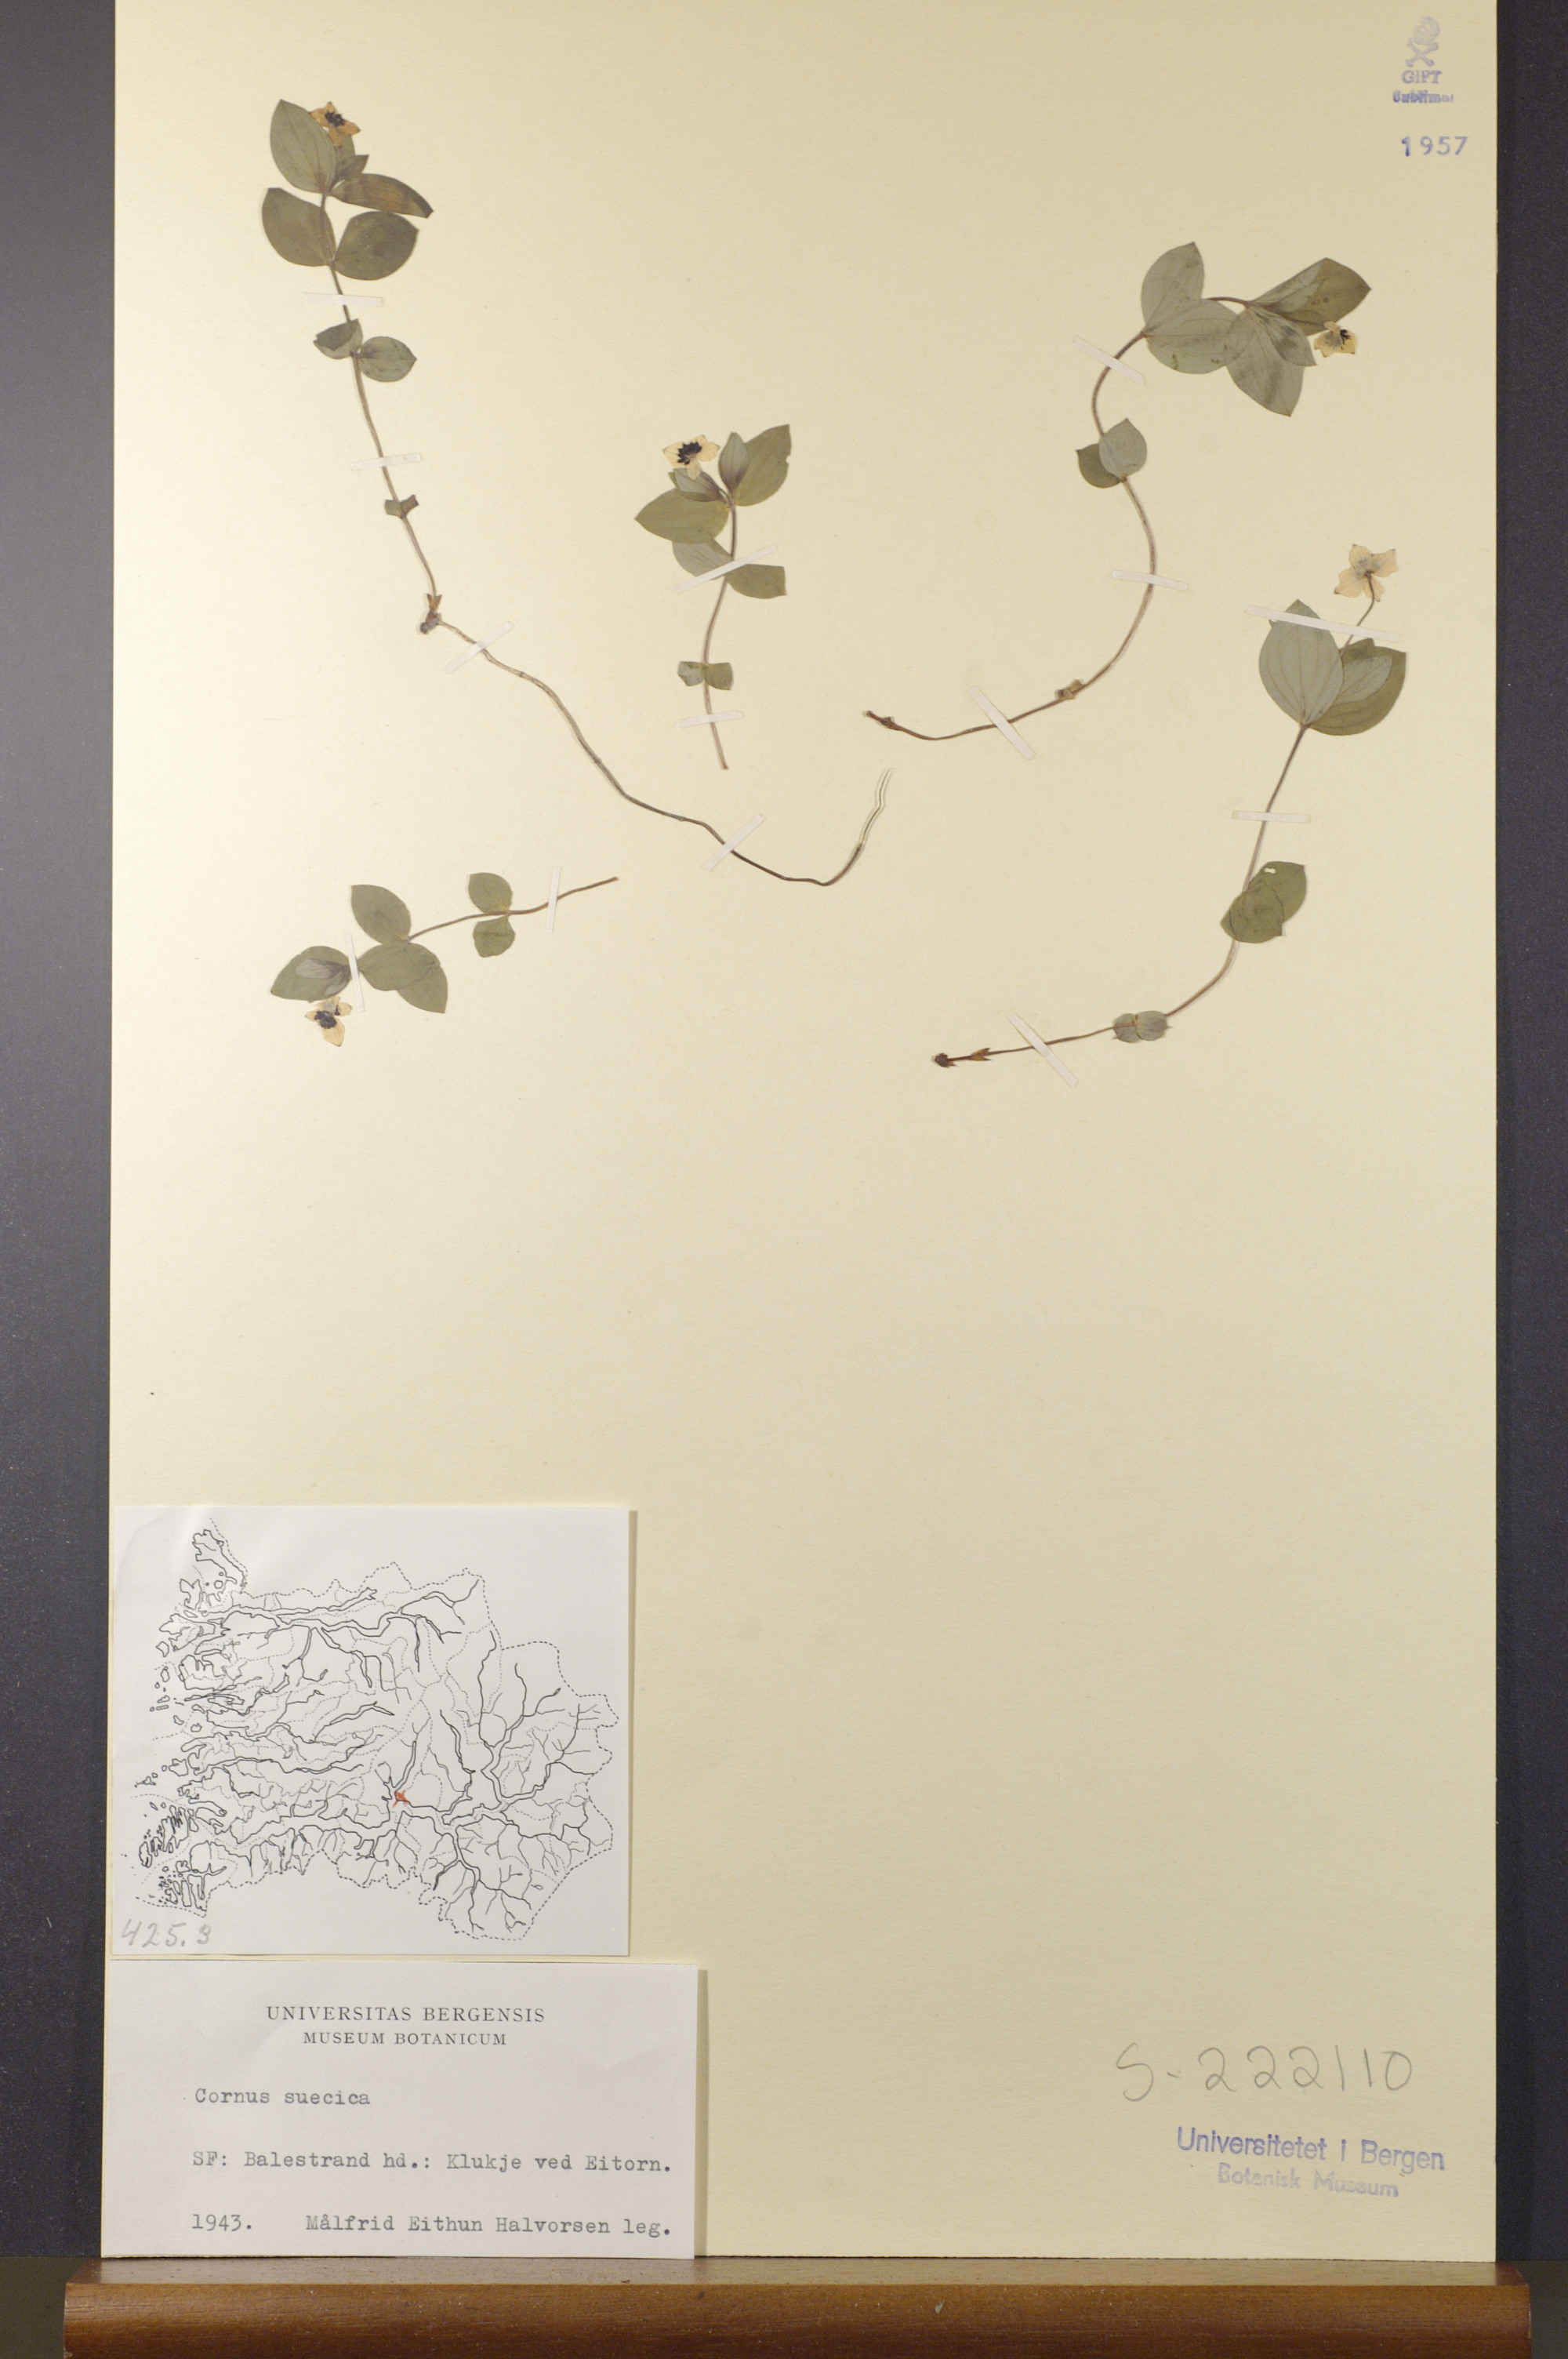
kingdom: Plantae
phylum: Tracheophyta
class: Magnoliopsida
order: Cornales
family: Cornaceae
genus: Cornus
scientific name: Cornus suecica
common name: Dwarf cornel
